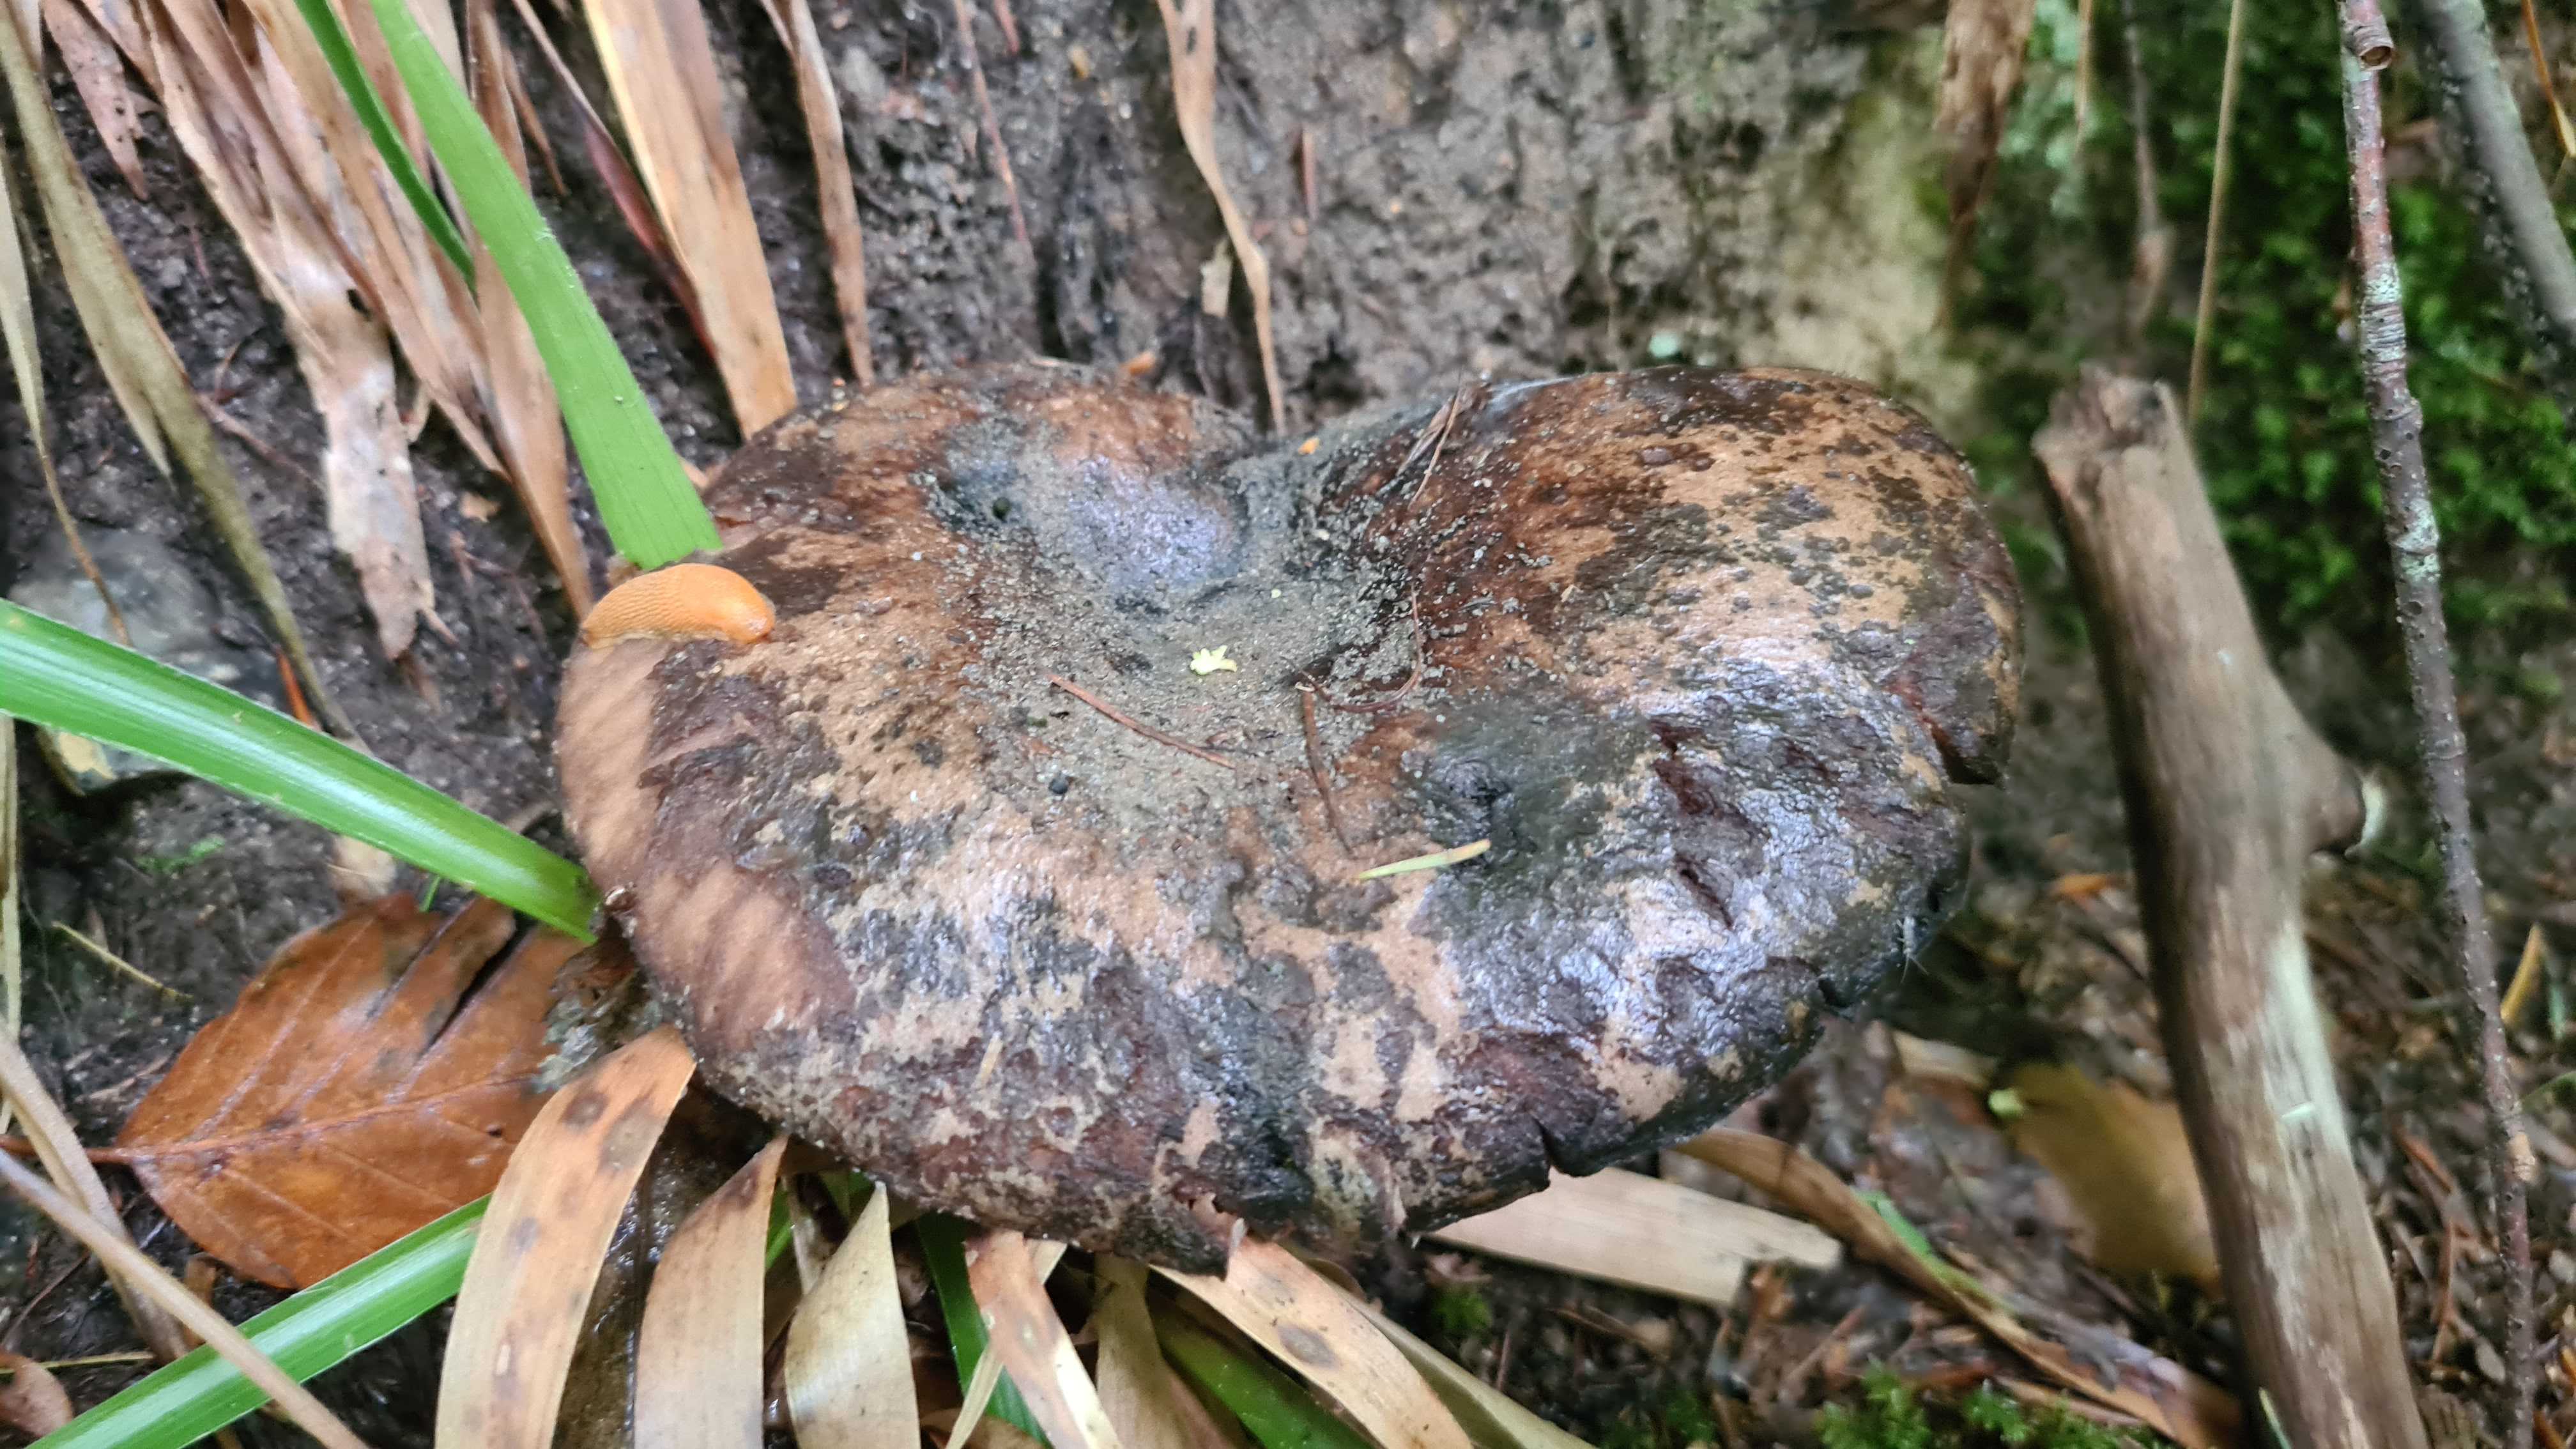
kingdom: Fungi
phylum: Basidiomycota
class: Agaricomycetes
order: Russulales
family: Russulaceae
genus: Russula
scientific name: Russula adusta
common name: sværtende skørhat
